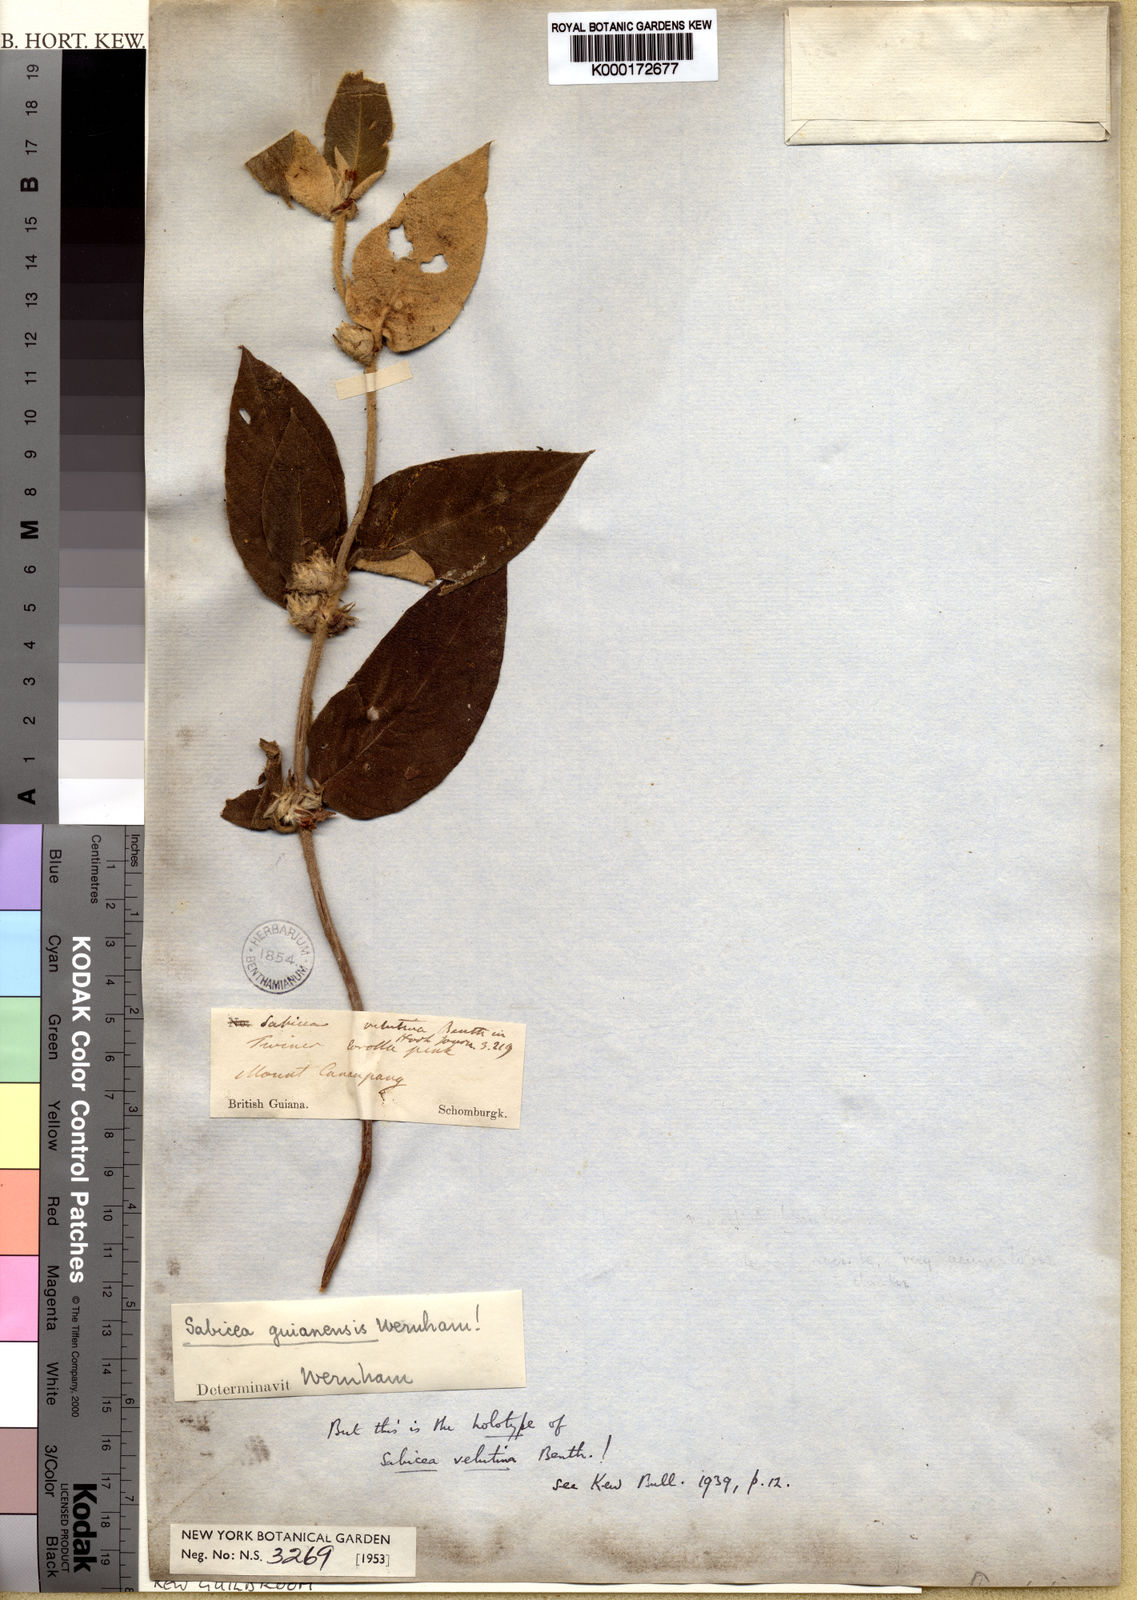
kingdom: Plantae
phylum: Tracheophyta
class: Magnoliopsida
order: Gentianales
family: Rubiaceae
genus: Sabicea
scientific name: Sabicea velutina
